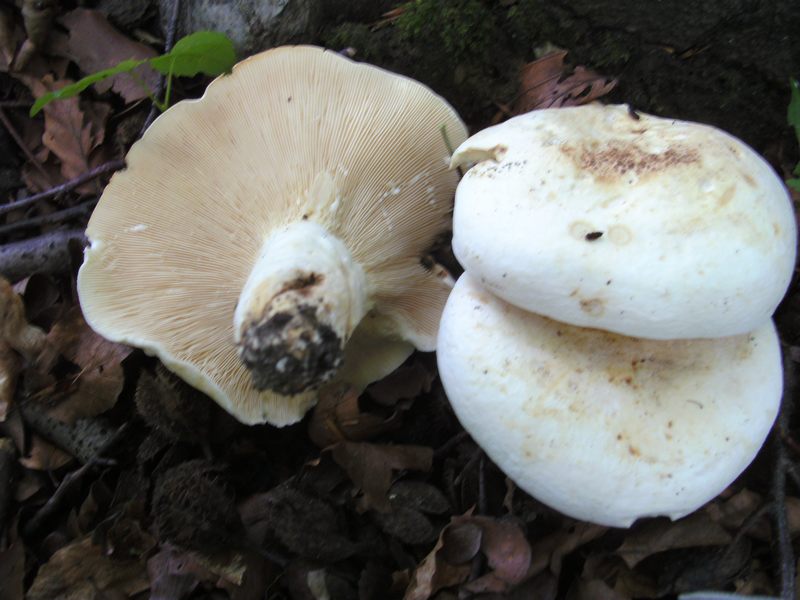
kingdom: Fungi
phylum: Basidiomycota
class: Agaricomycetes
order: Russulales
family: Russulaceae
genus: Lactifluus
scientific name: Lactifluus piperatus
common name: peber-mælkehat
